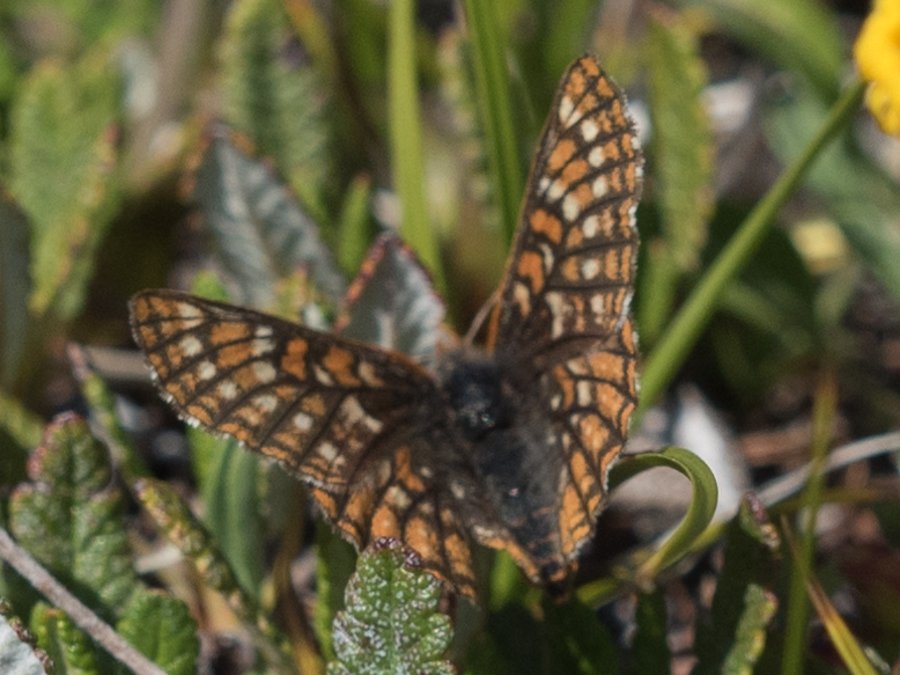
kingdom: Animalia
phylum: Arthropoda
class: Insecta
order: Lepidoptera
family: Nymphalidae
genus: Occidryas
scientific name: Occidryas anicia
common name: Anicia Checkerspot
